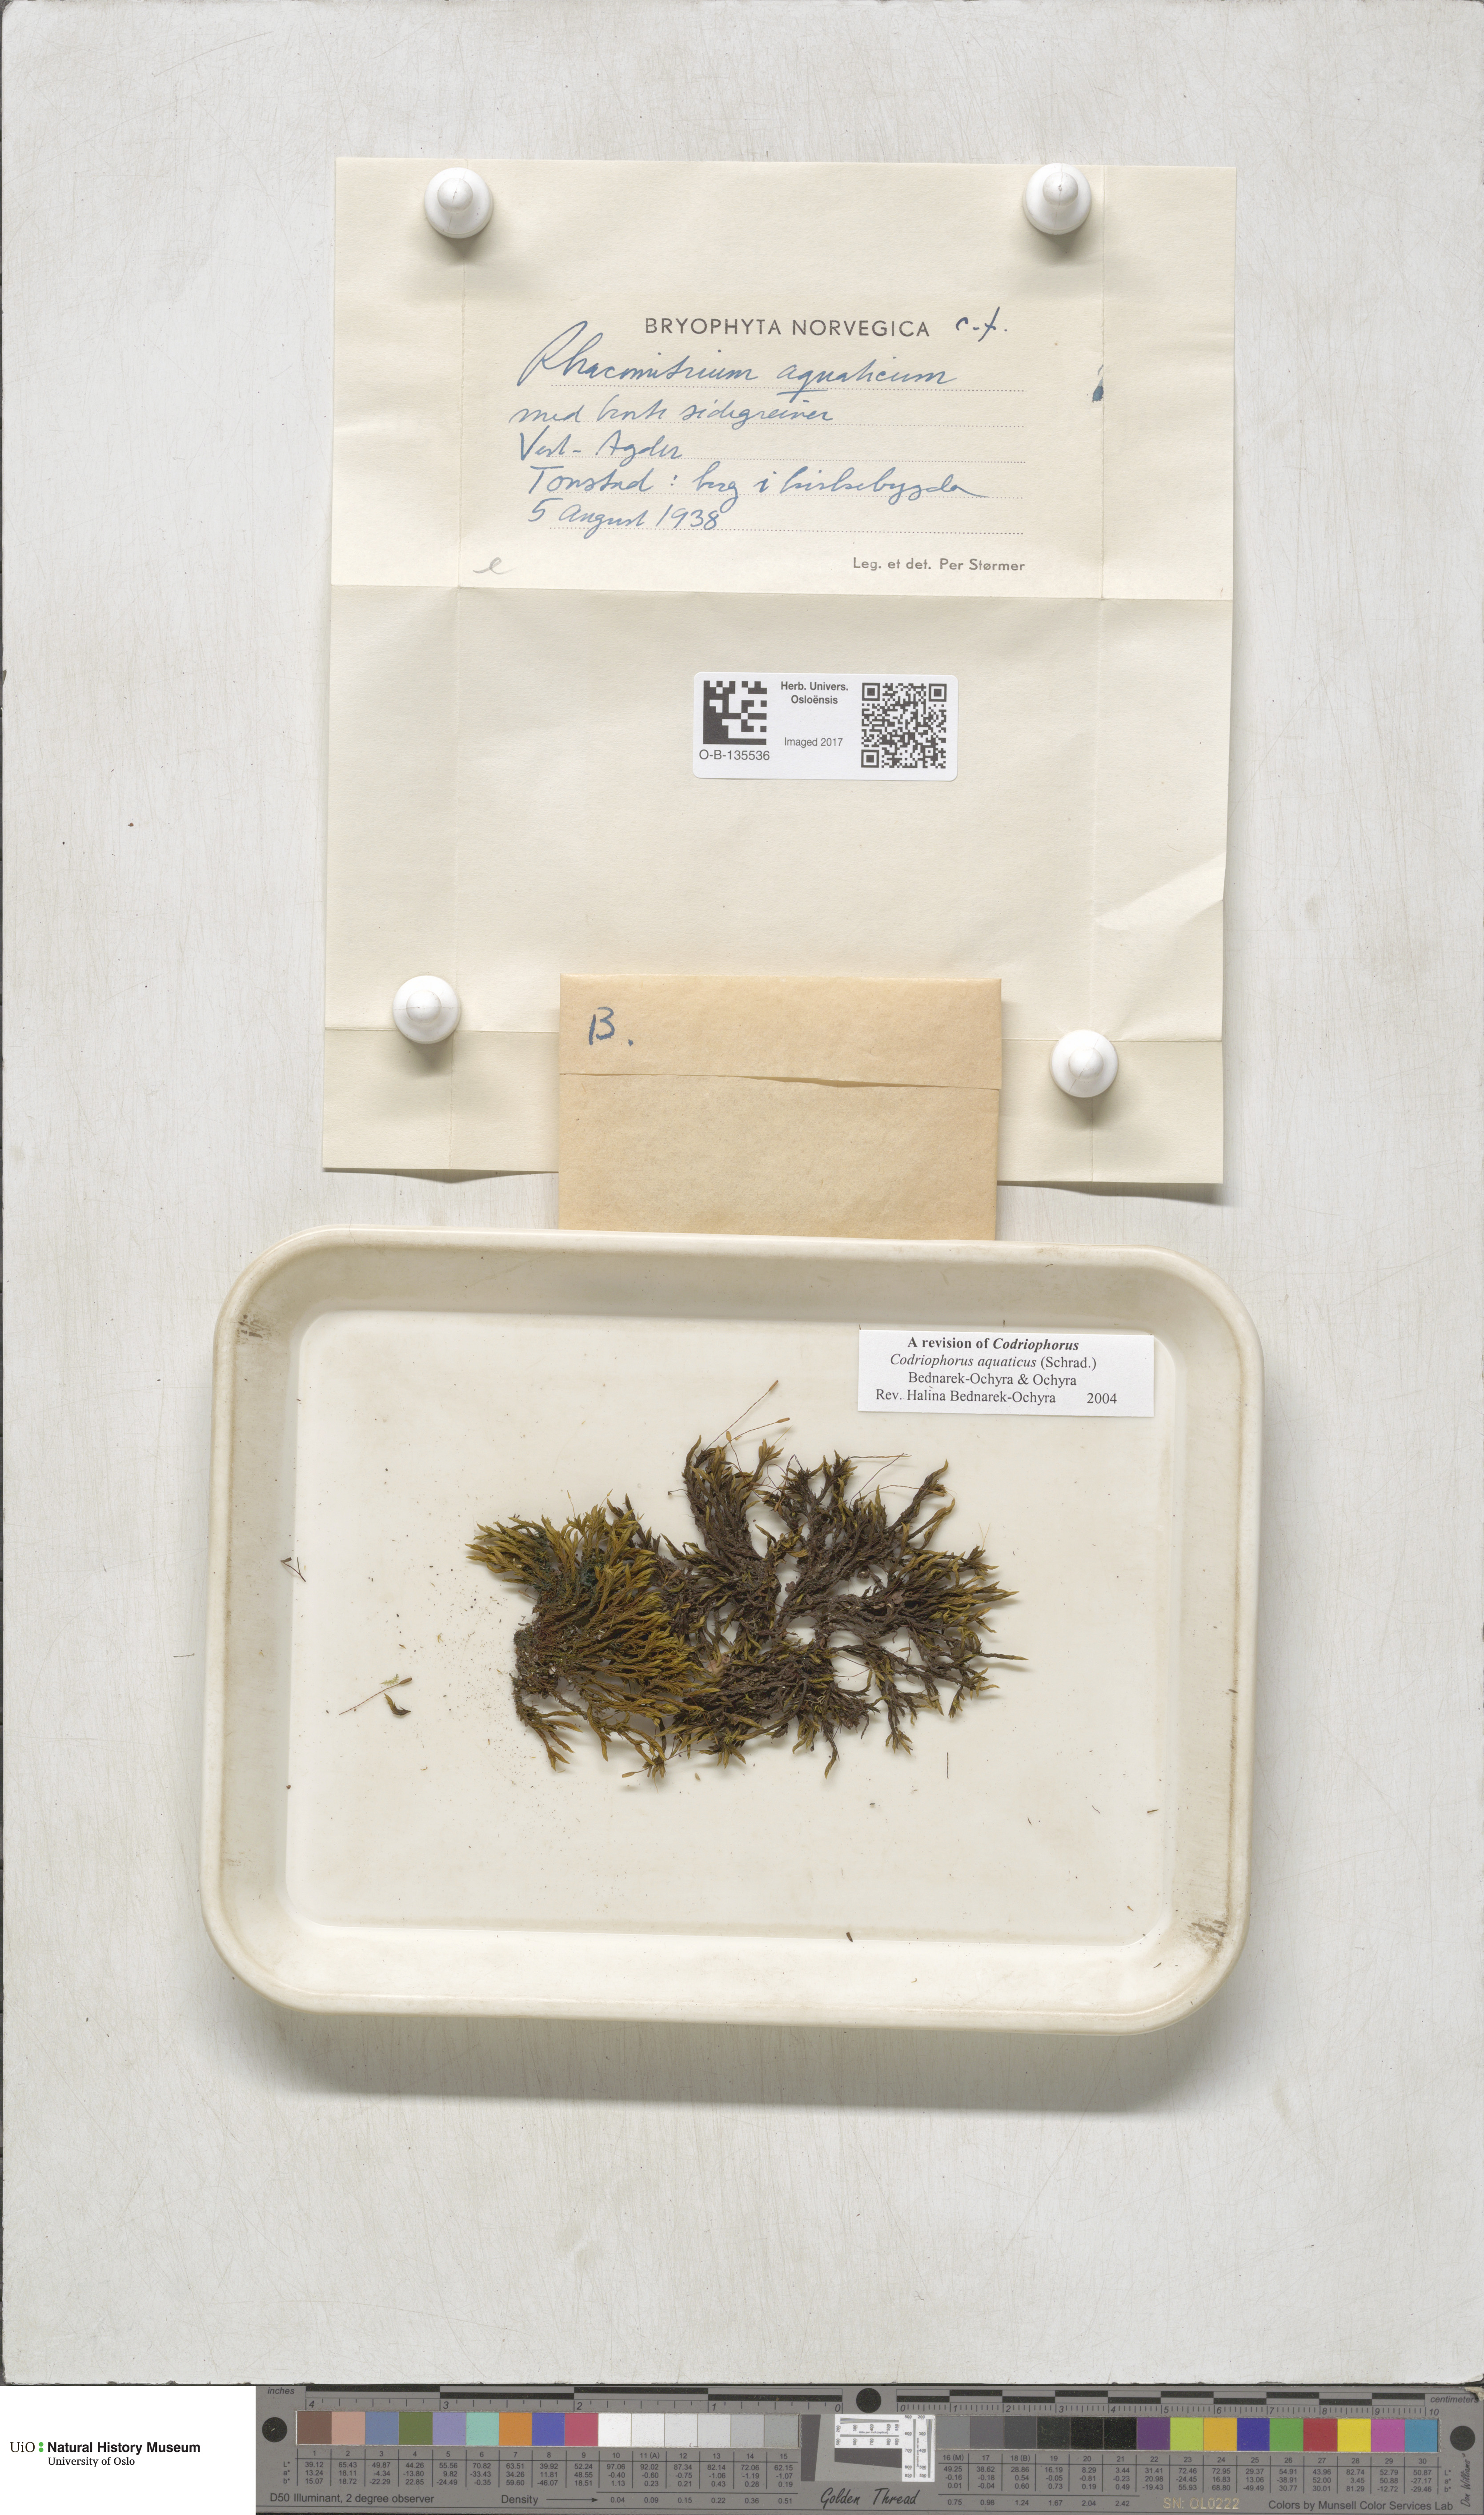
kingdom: Plantae
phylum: Bryophyta
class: Bryopsida
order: Grimmiales
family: Grimmiaceae
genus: Codriophorus
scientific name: Codriophorus aquaticus
